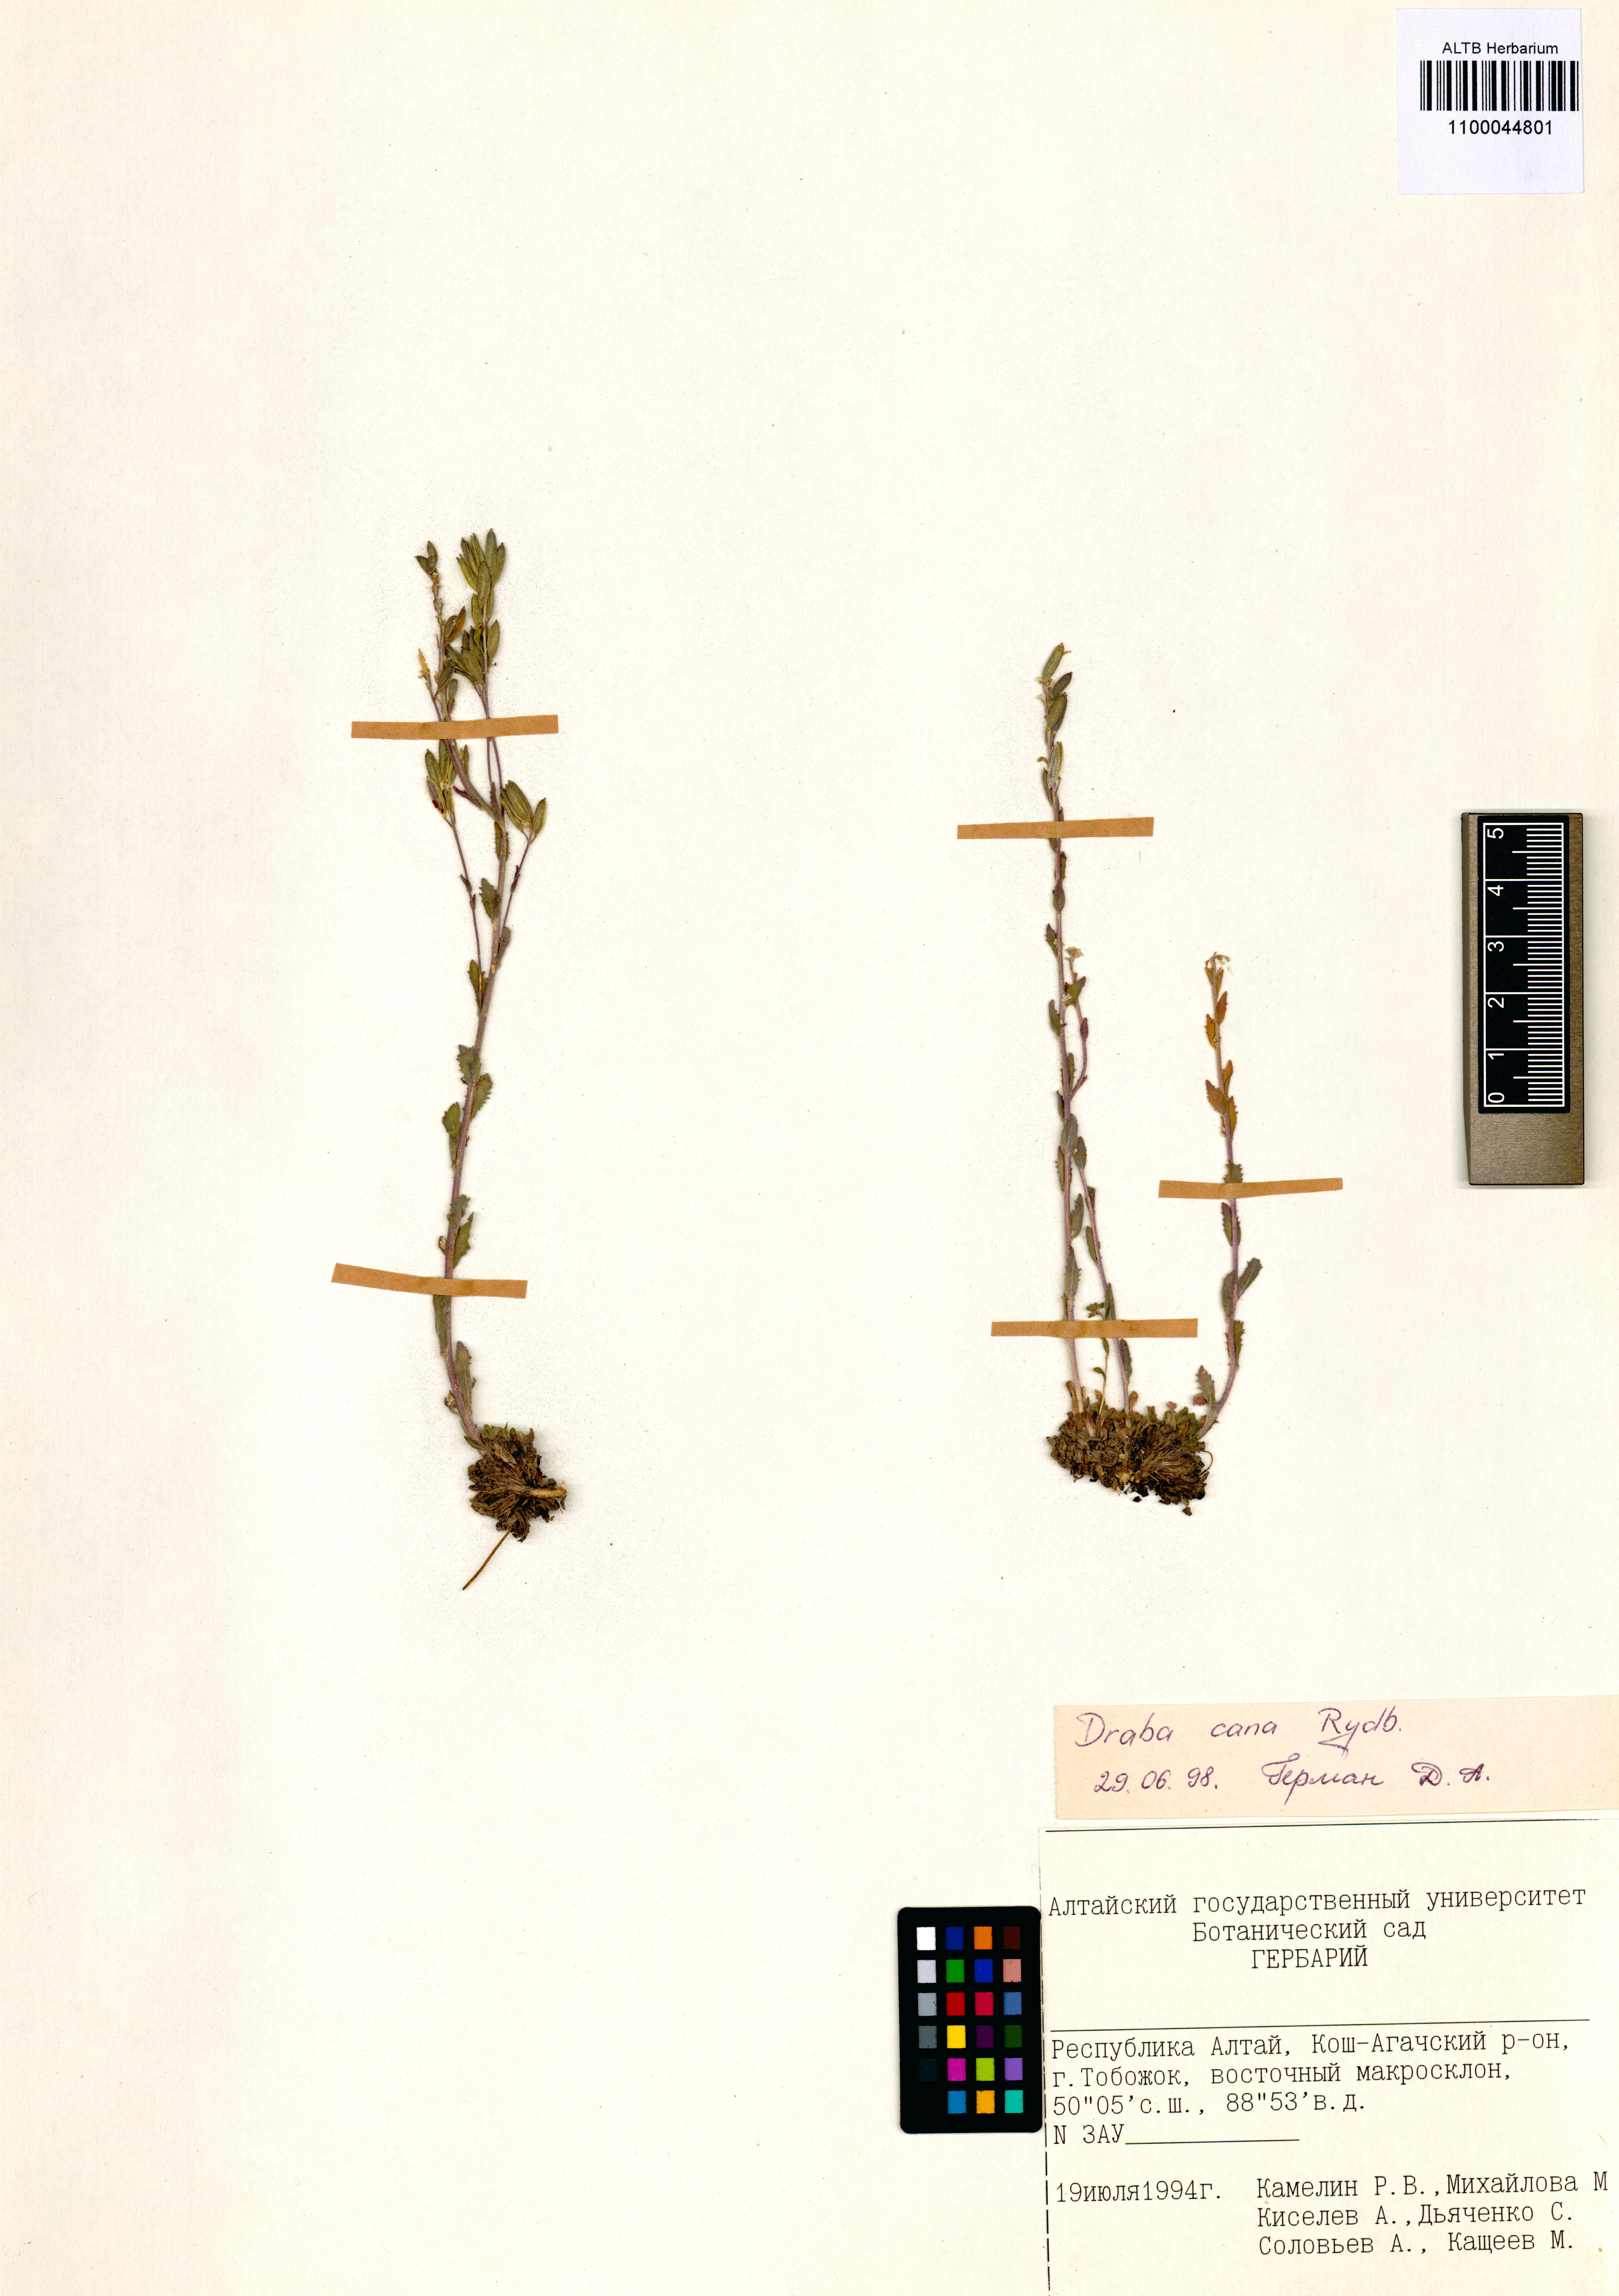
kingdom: Plantae
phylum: Tracheophyta
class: Magnoliopsida
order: Brassicales
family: Brassicaceae
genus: Draba
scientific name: Draba cana
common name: Hoary draba
